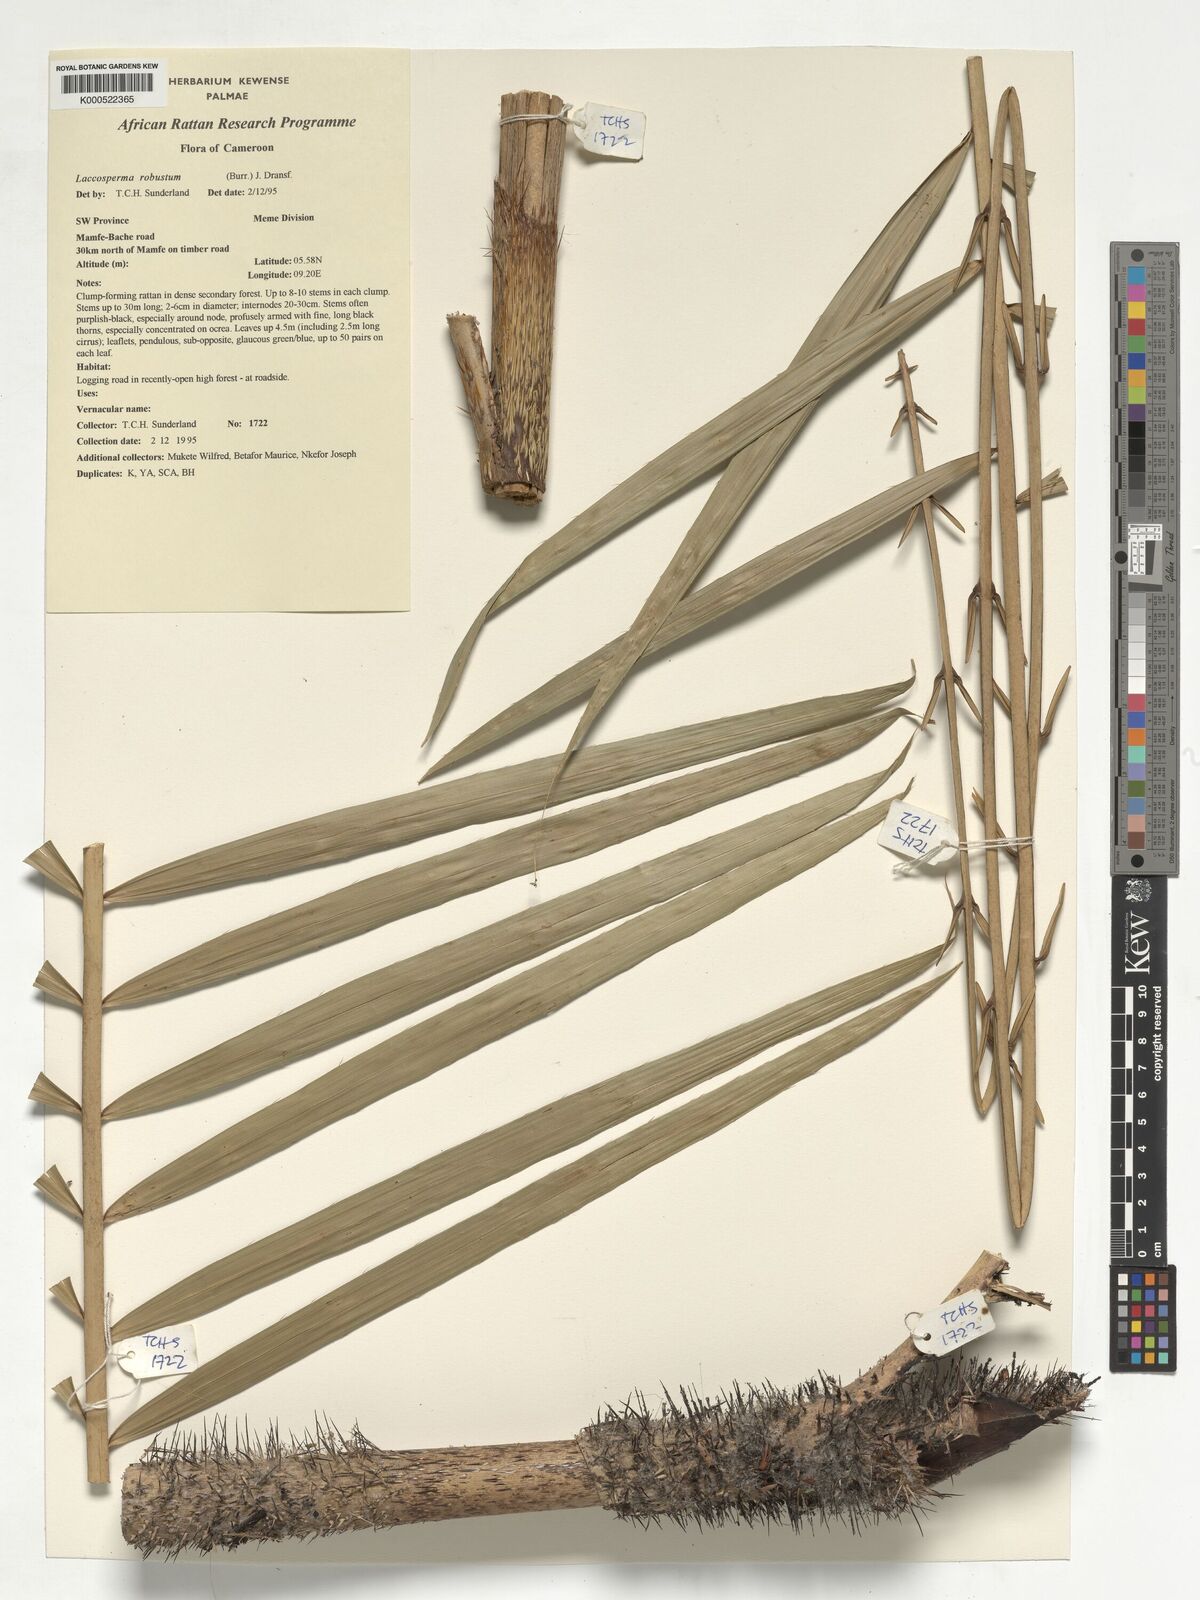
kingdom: Plantae
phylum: Tracheophyta
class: Liliopsida
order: Arecales
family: Arecaceae
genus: Laccosperma
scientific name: Laccosperma robustum
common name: Rattan
